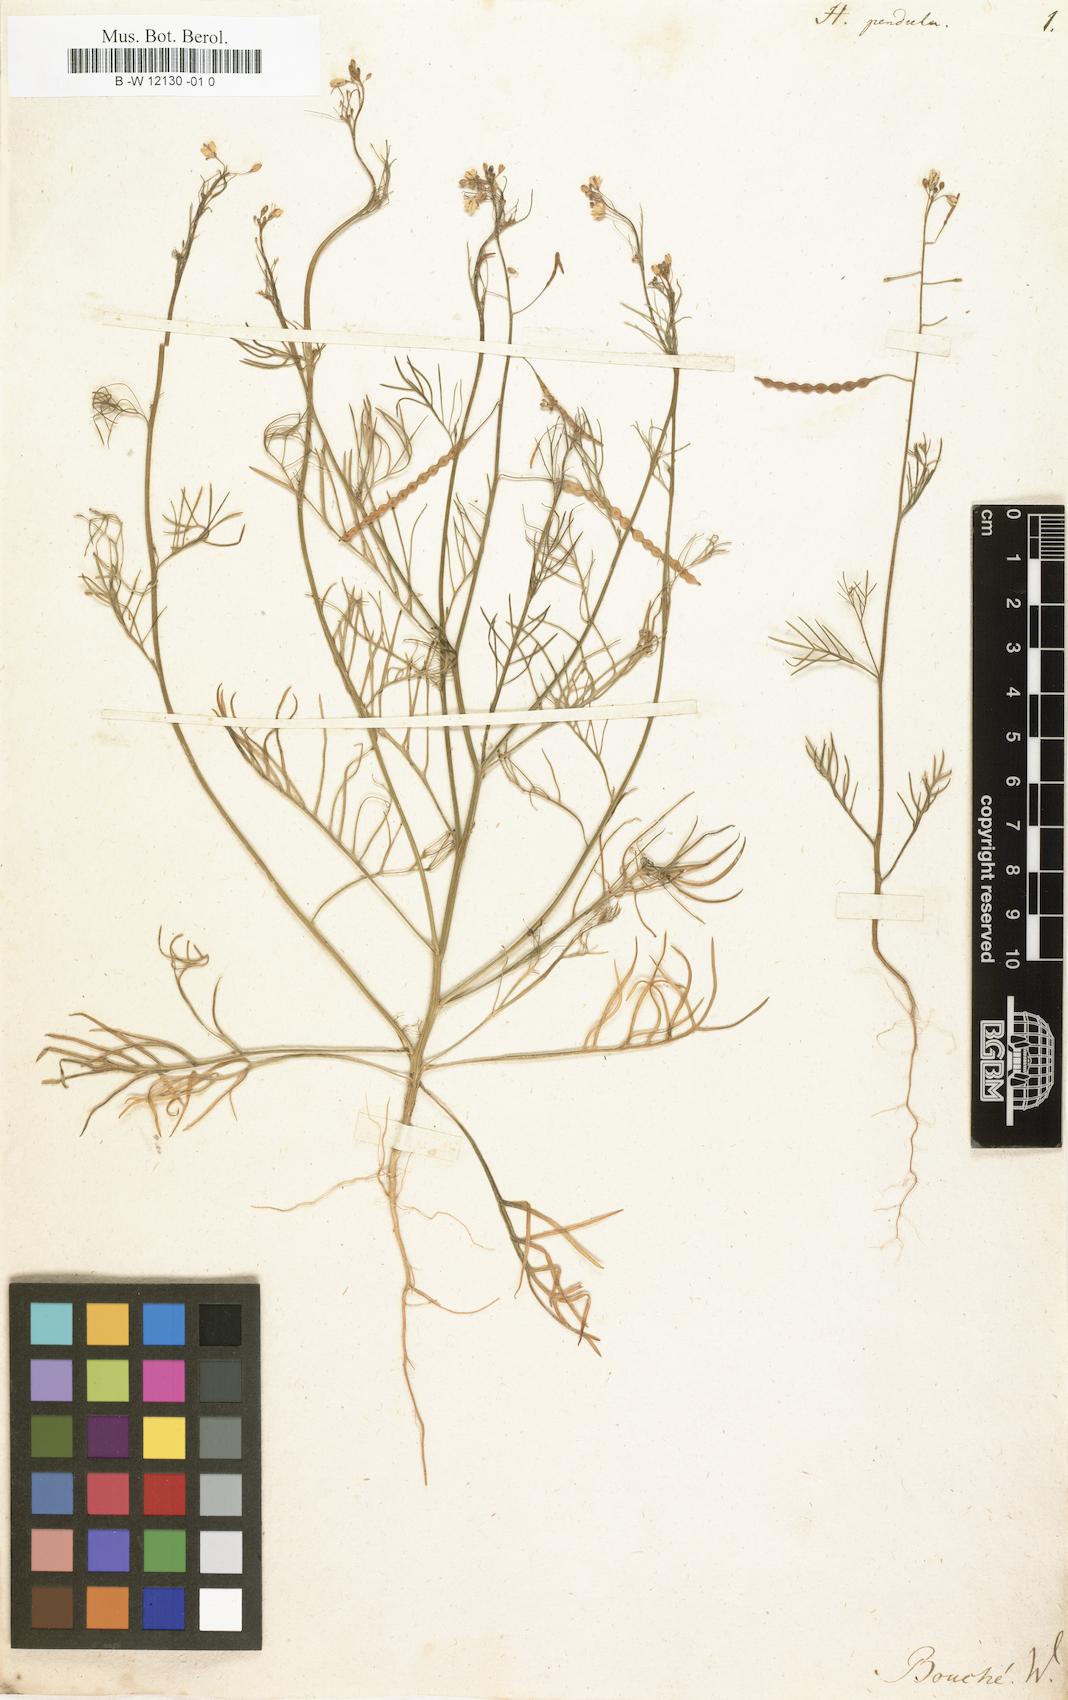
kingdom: Plantae
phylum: Tracheophyta
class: Magnoliopsida
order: Brassicales
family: Brassicaceae
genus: Heliophila
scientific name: Heliophila pendula
